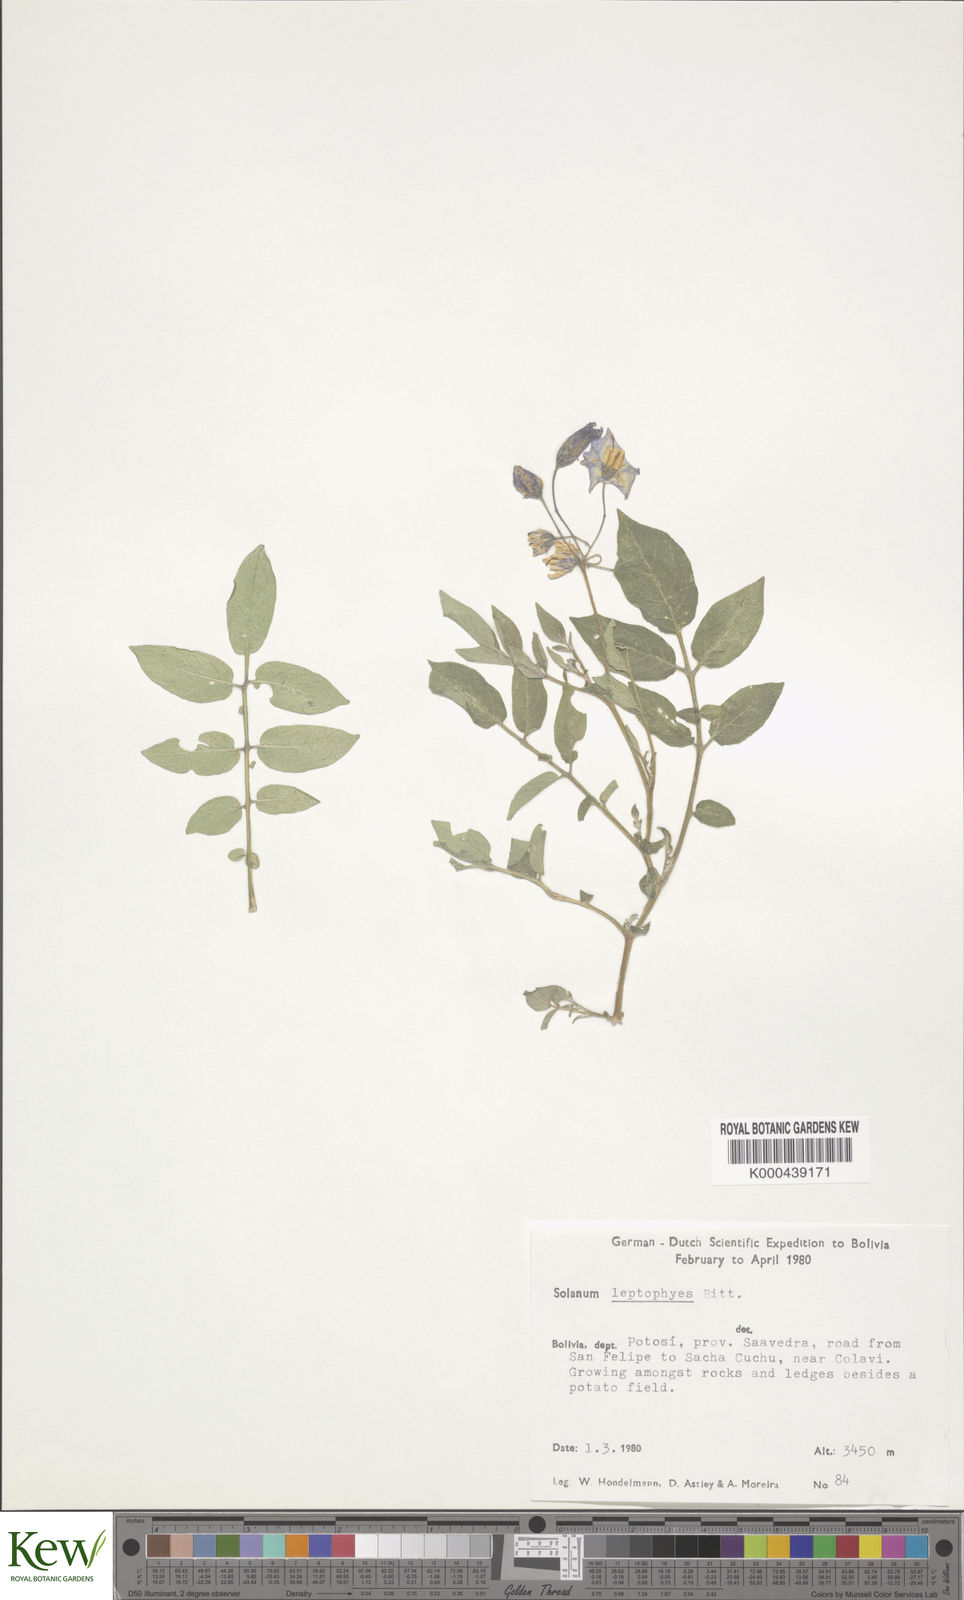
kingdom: Plantae
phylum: Tracheophyta
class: Magnoliopsida
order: Solanales
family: Solanaceae
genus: Solanum
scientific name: Solanum brevicaule
